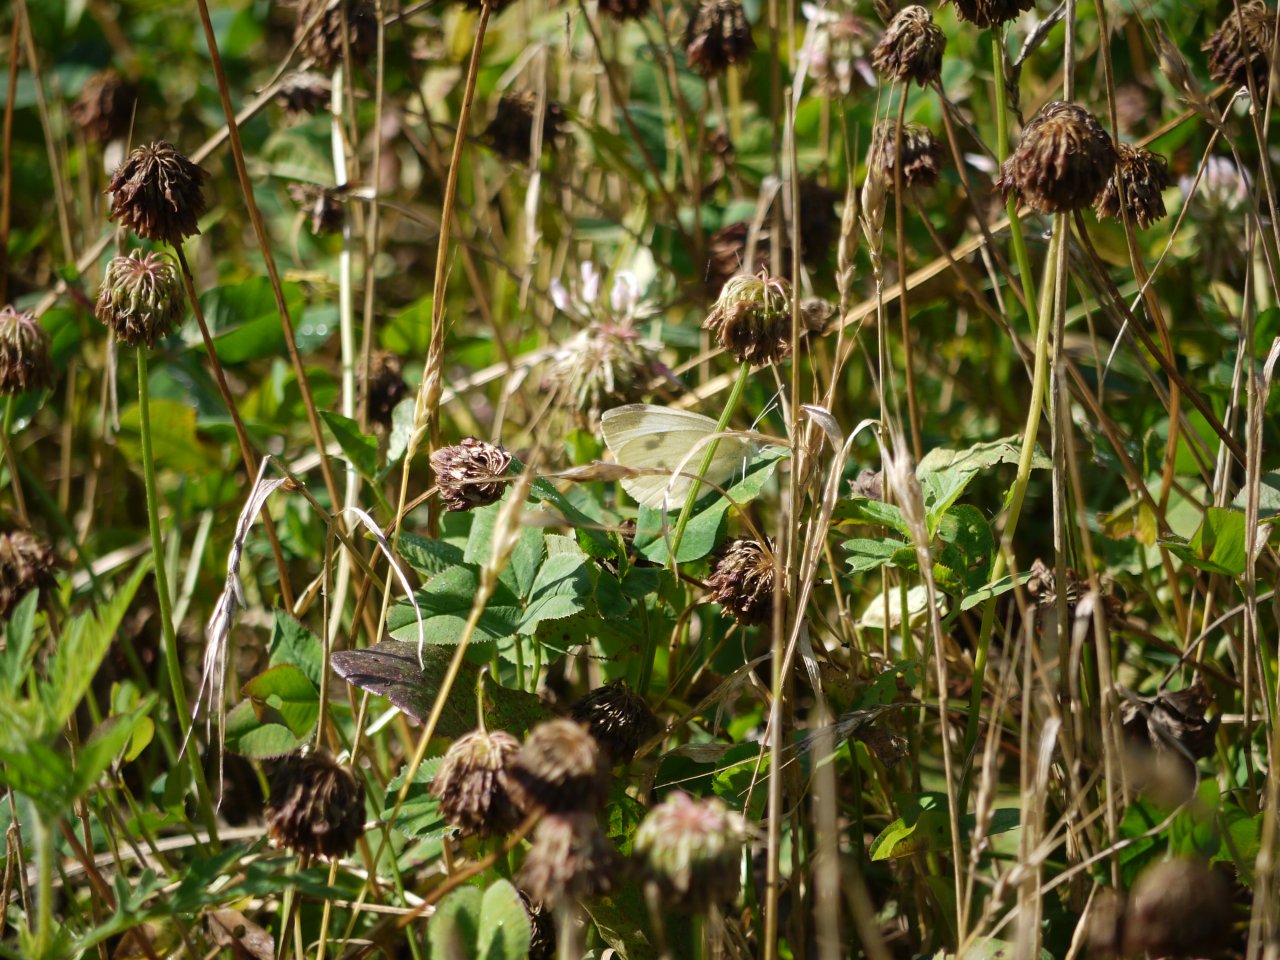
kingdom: Animalia
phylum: Arthropoda
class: Insecta
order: Lepidoptera
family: Pieridae
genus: Pieris
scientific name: Pieris rapae
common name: Cabbage White
